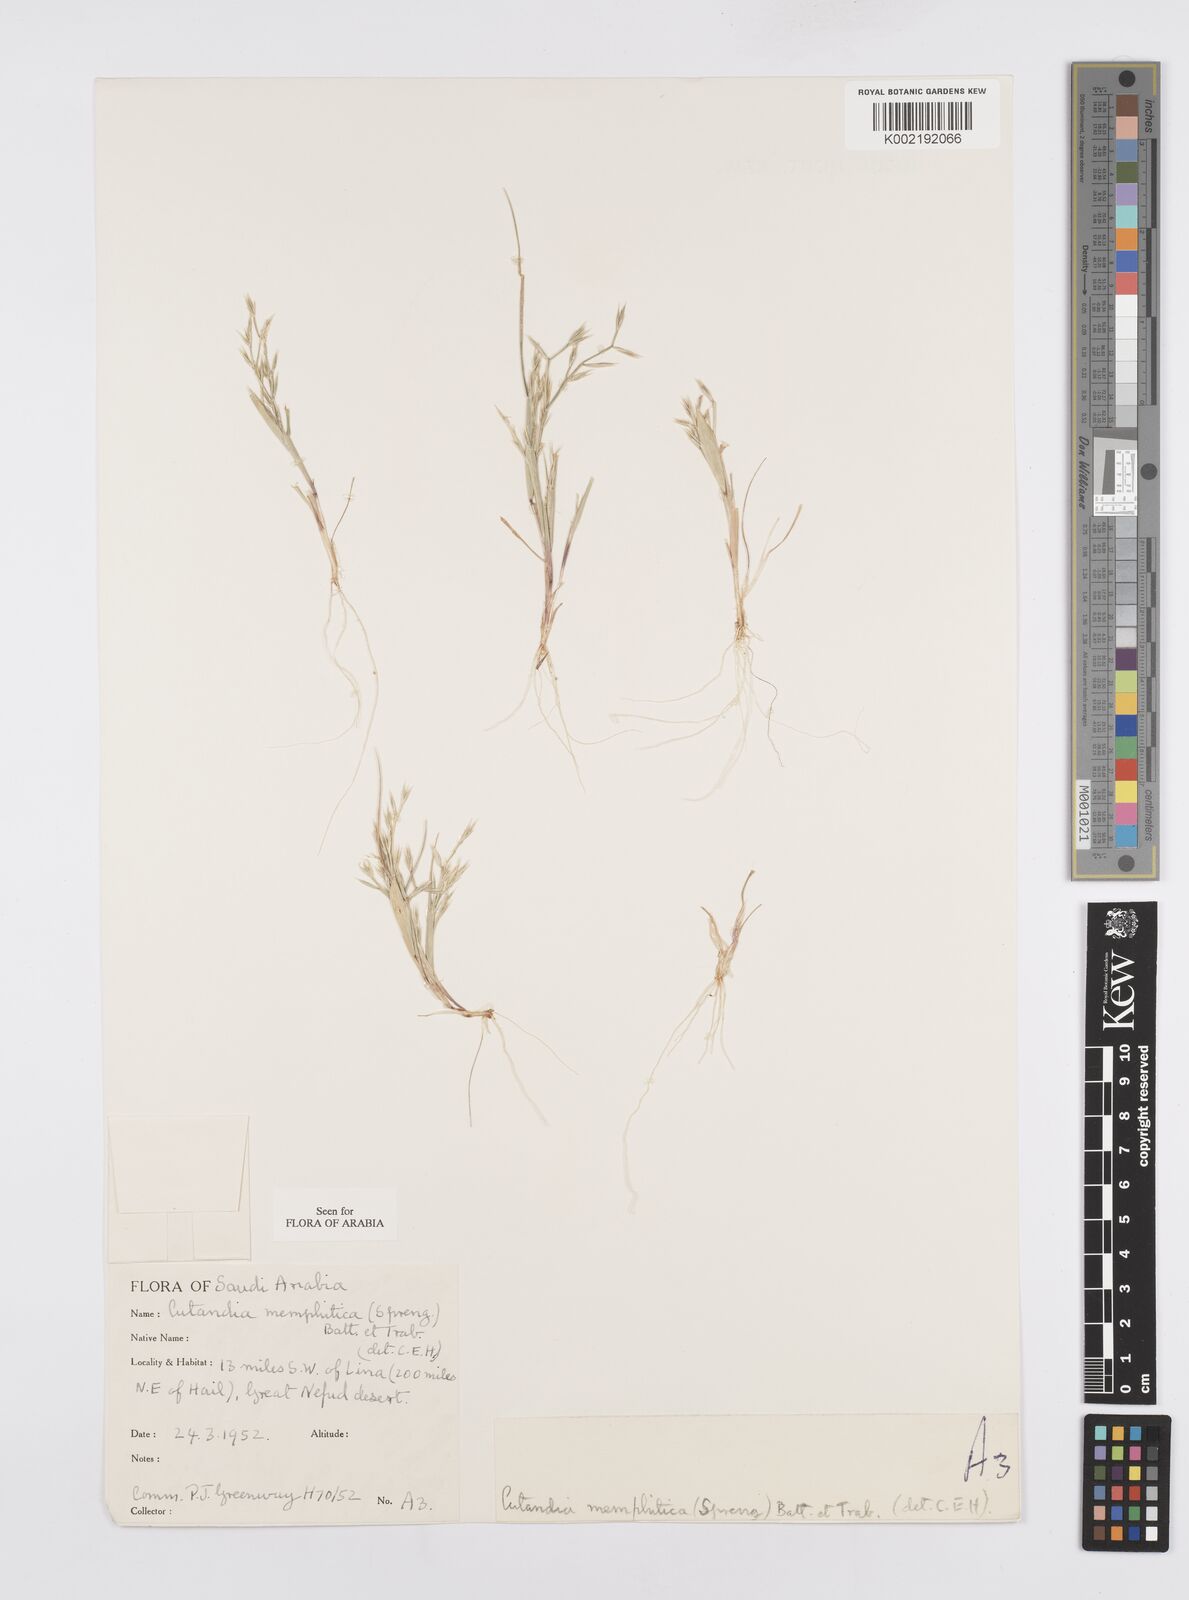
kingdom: Plantae
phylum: Tracheophyta
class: Liliopsida
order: Poales
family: Poaceae
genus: Cutandia
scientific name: Cutandia memphitica
